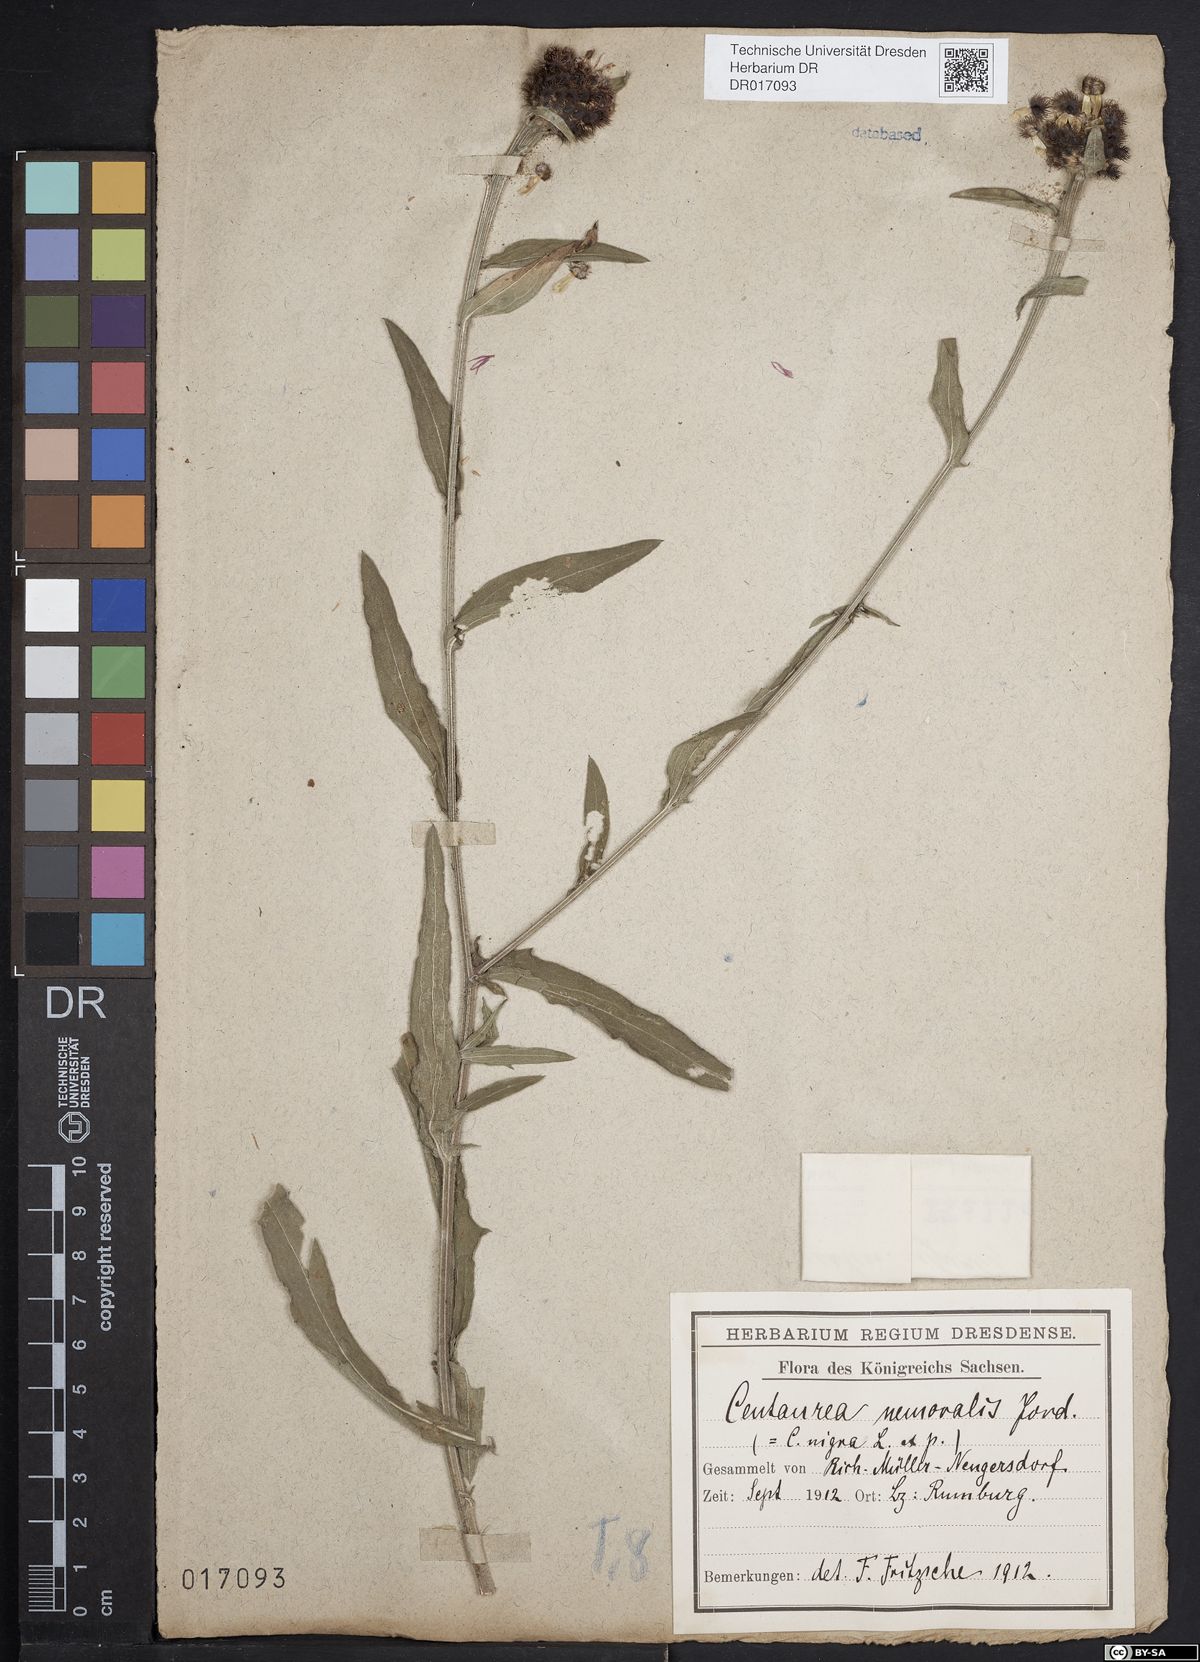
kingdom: Plantae
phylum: Tracheophyta
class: Magnoliopsida
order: Asterales
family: Asteraceae
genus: Centaurea
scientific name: Centaurea nigra
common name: Lesser knapweed
